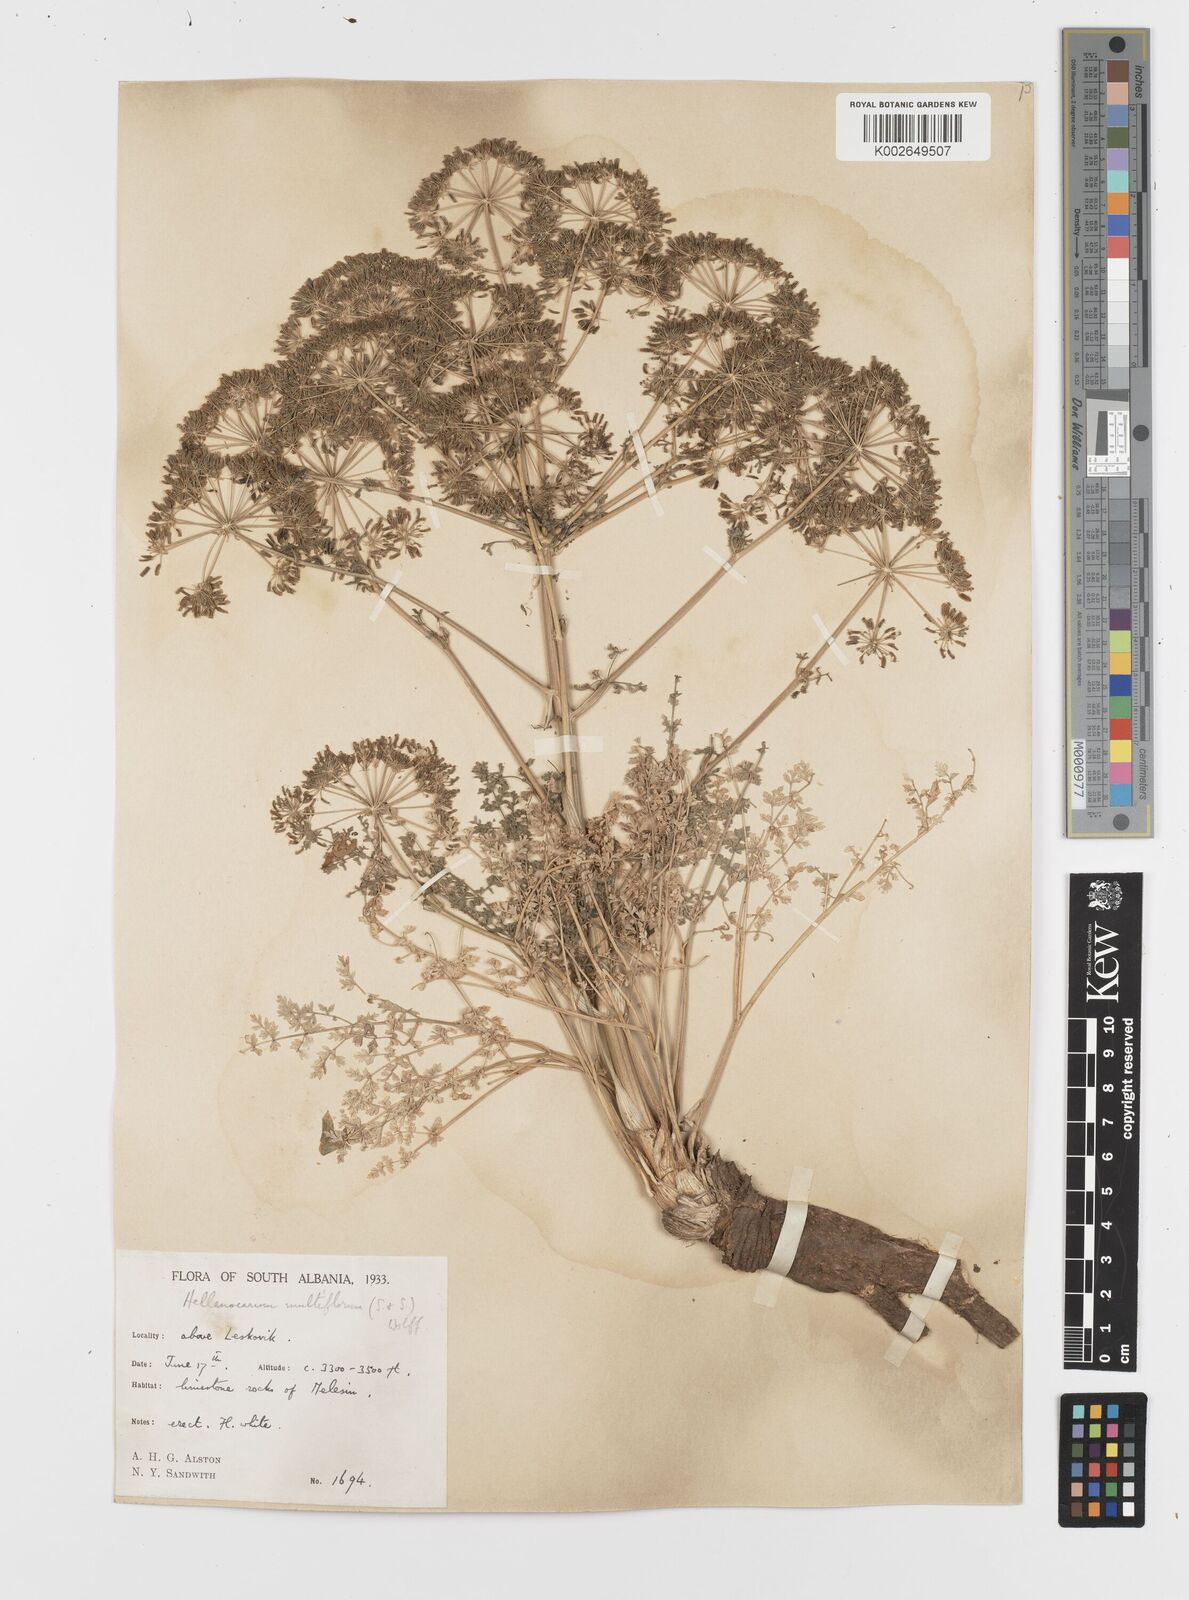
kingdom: Plantae
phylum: Tracheophyta
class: Magnoliopsida
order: Apiales
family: Apiaceae
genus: Hellenocarum
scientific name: Hellenocarum multiflorum
